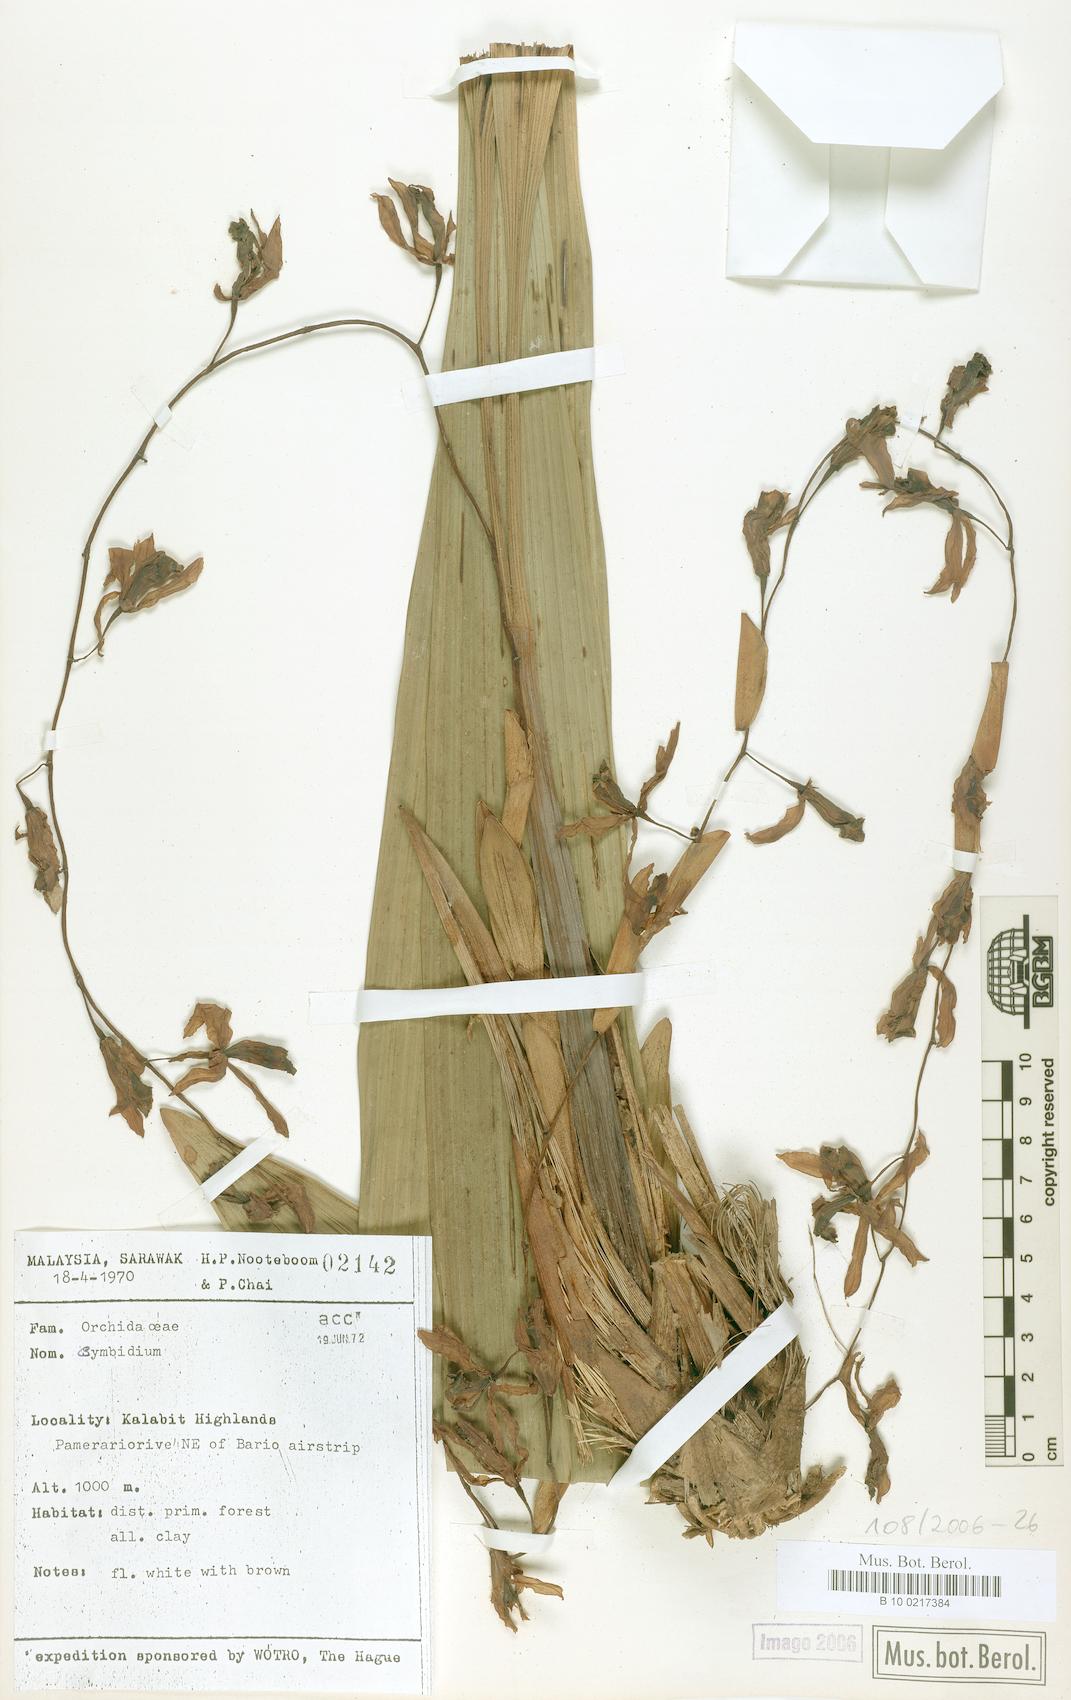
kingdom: Plantae
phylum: Tracheophyta
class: Liliopsida
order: Asparagales
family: Orchidaceae
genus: Cymbidium
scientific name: Cymbidium
